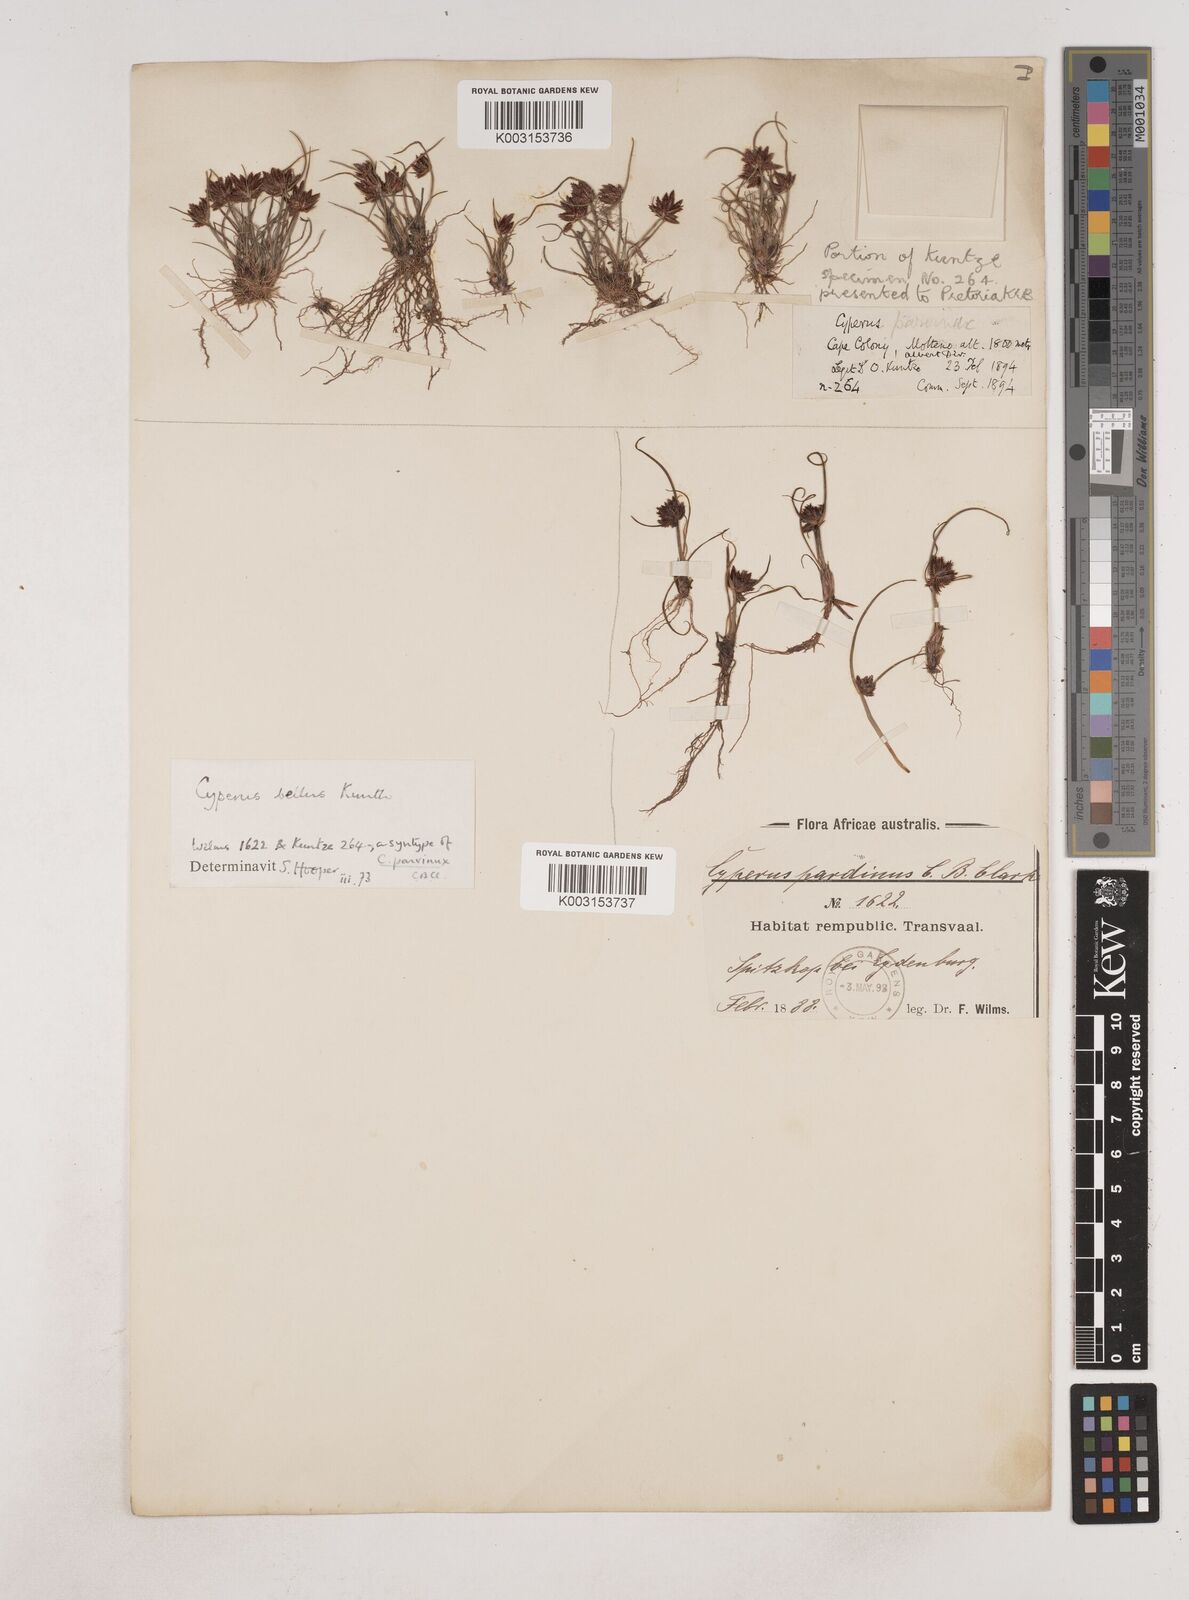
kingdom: Plantae
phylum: Tracheophyta
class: Liliopsida
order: Poales
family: Cyperaceae
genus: Cyperus
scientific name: Cyperus bellus
